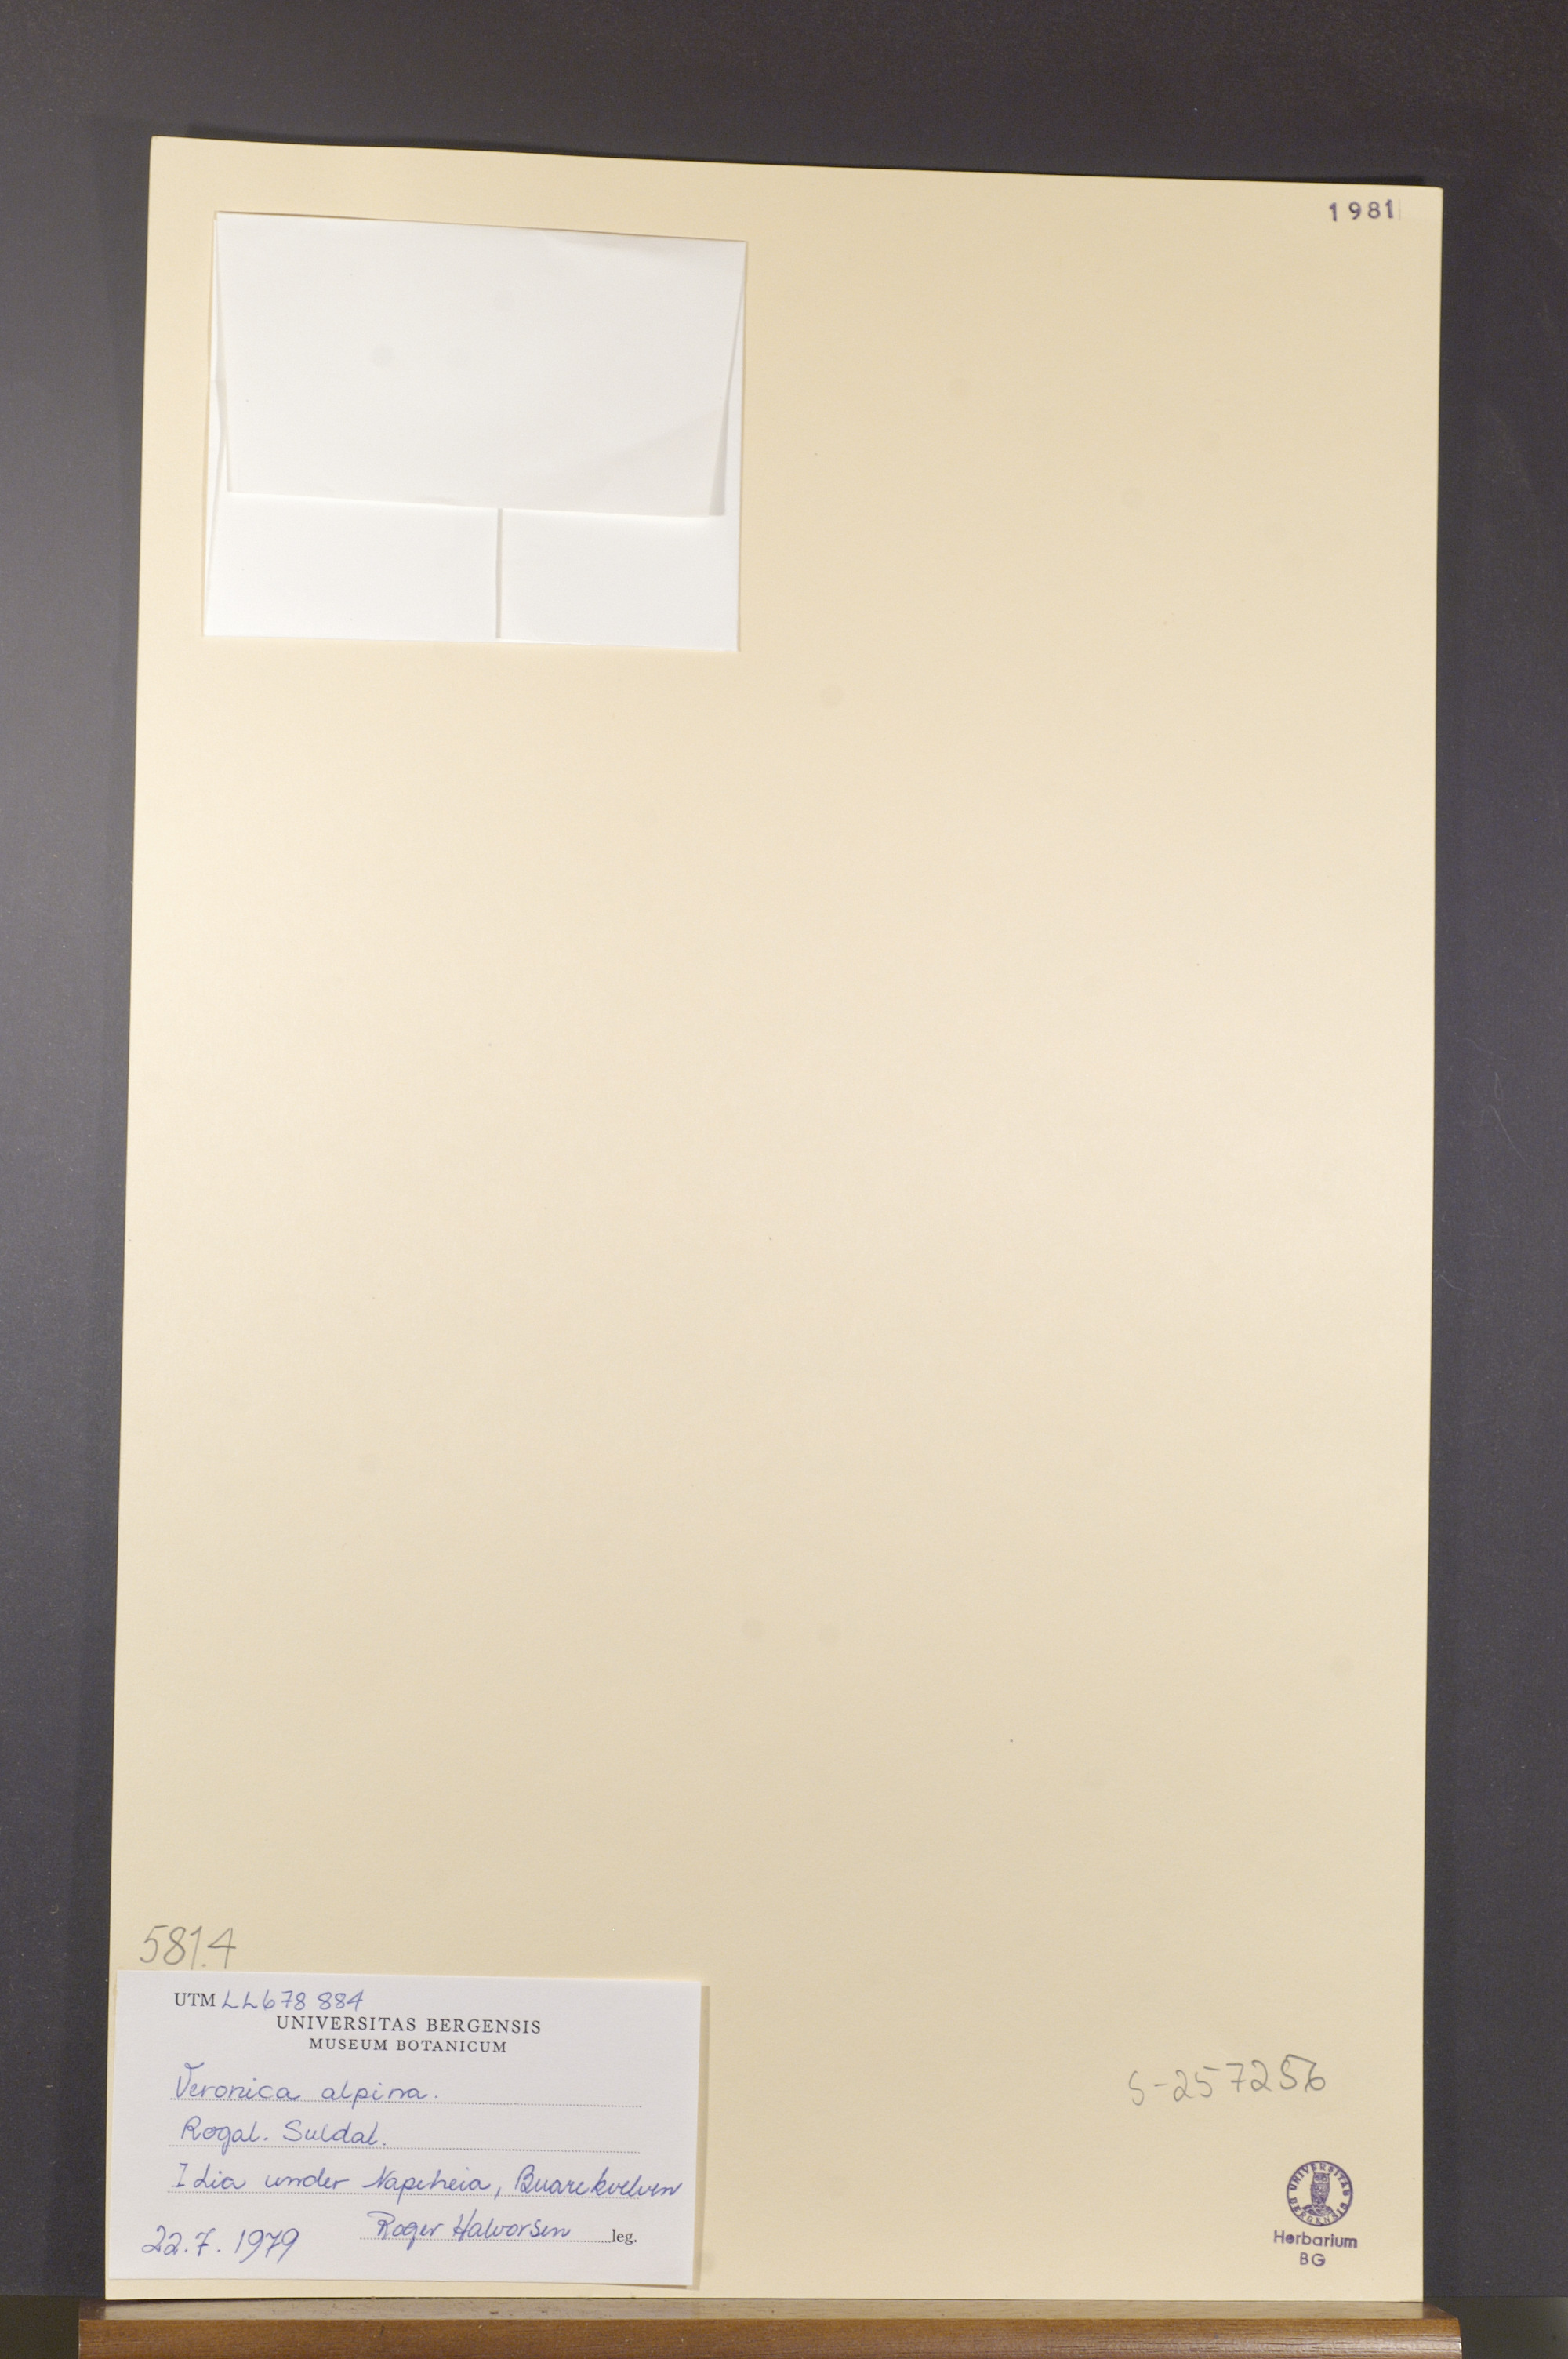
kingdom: Plantae
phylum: Tracheophyta
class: Magnoliopsida
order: Lamiales
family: Plantaginaceae
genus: Veronica
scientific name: Veronica alpina
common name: Alpine speedwell
